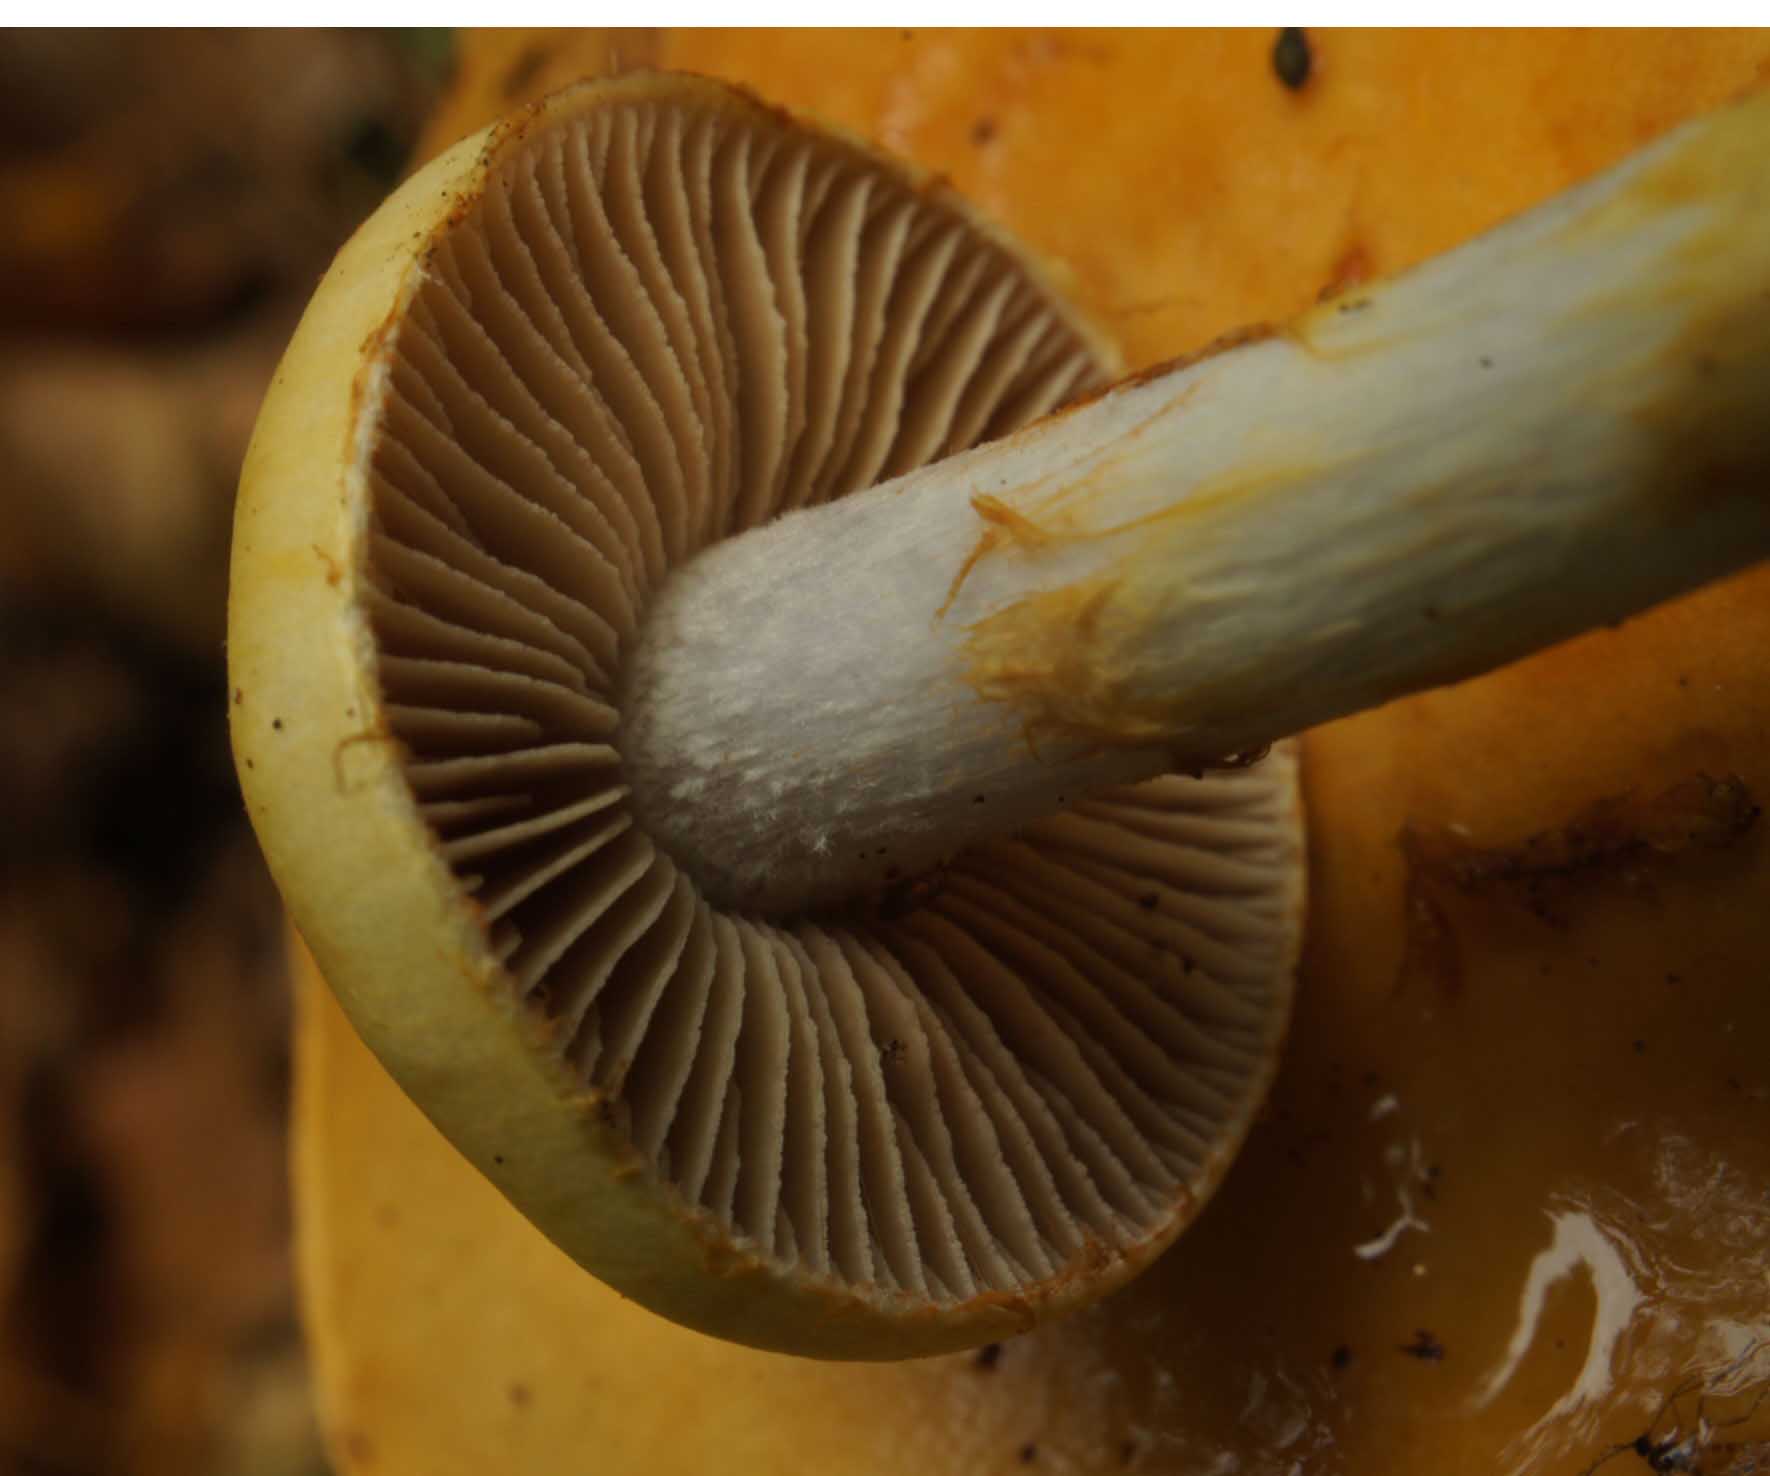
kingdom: Fungi
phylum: Basidiomycota
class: Agaricomycetes
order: Agaricales
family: Cortinariaceae
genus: Cortinarius
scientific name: Cortinarius delibutus
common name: gul slørhat
